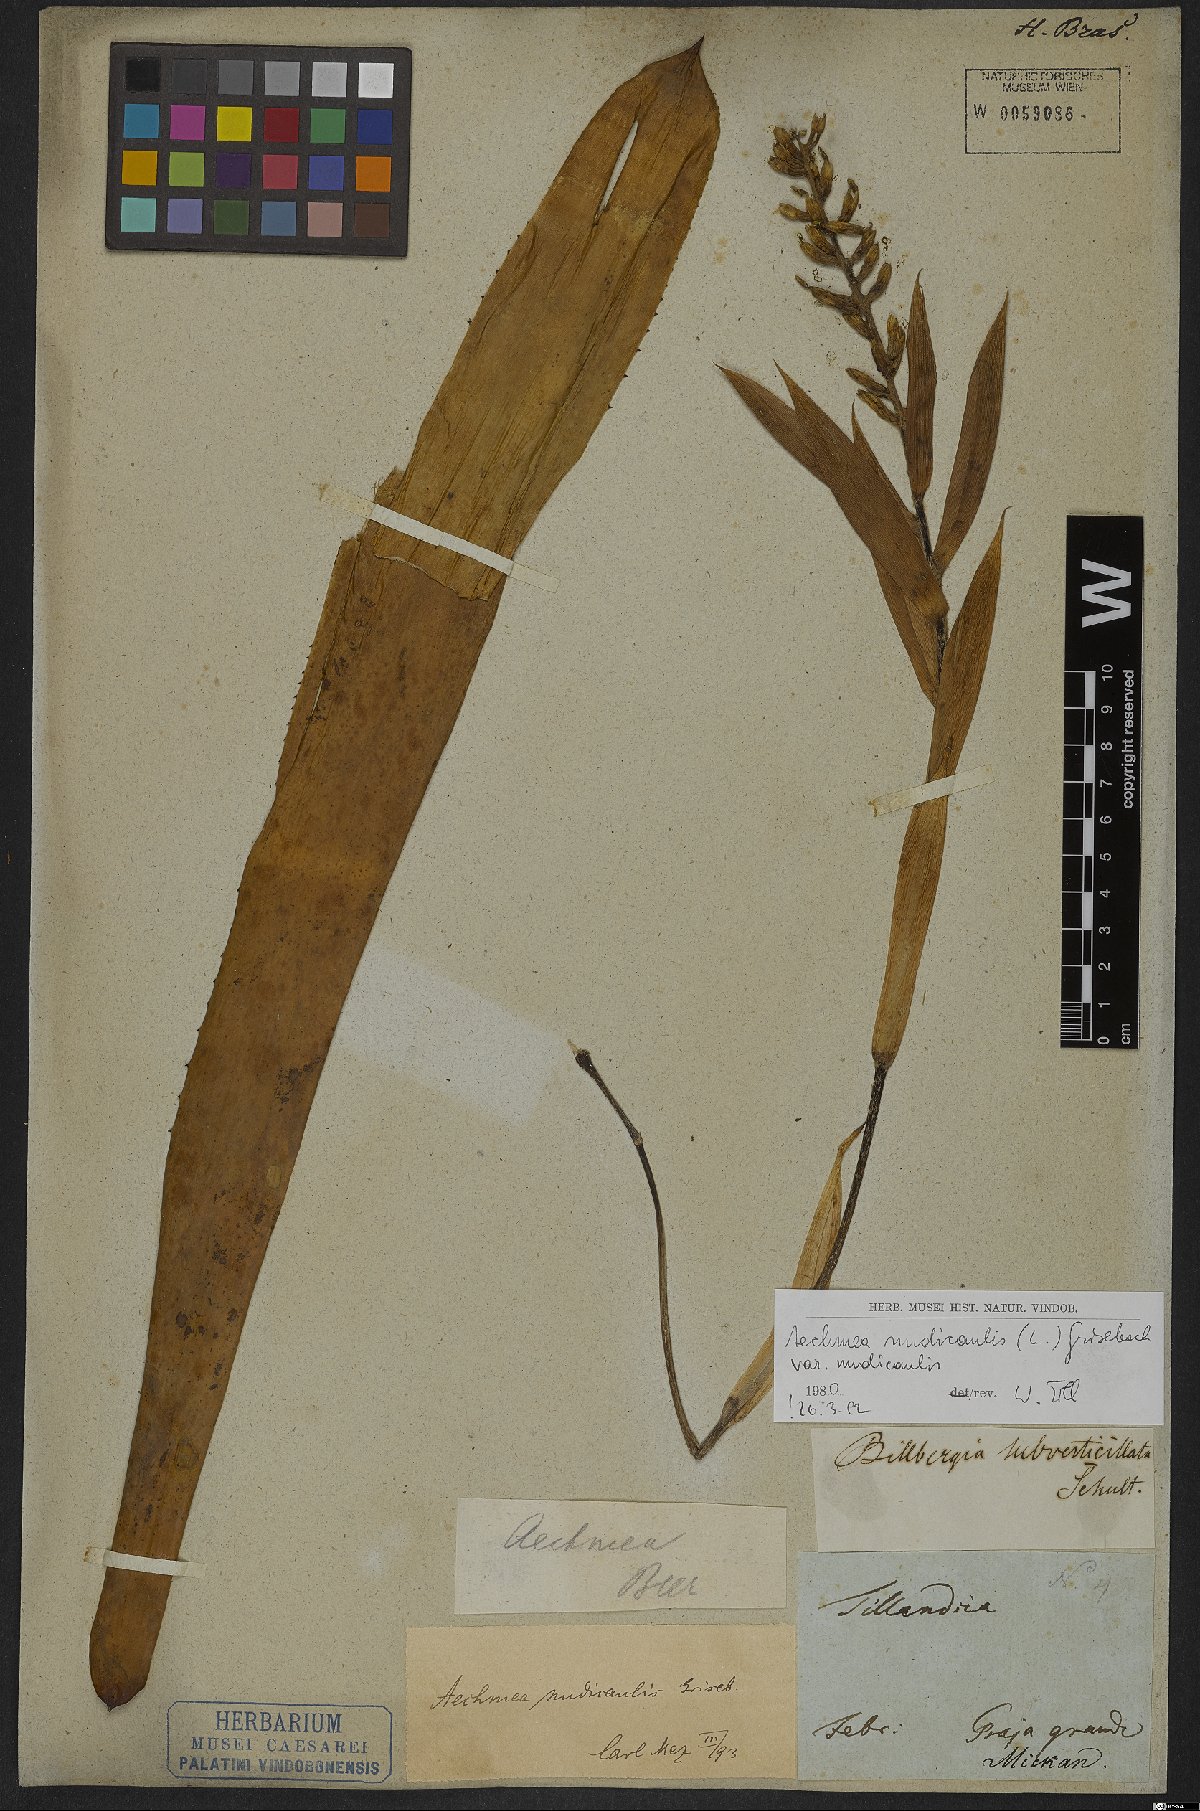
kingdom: Plantae
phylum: Tracheophyta
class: Liliopsida
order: Poales
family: Bromeliaceae
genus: Aechmea
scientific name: Aechmea nudicaulis
